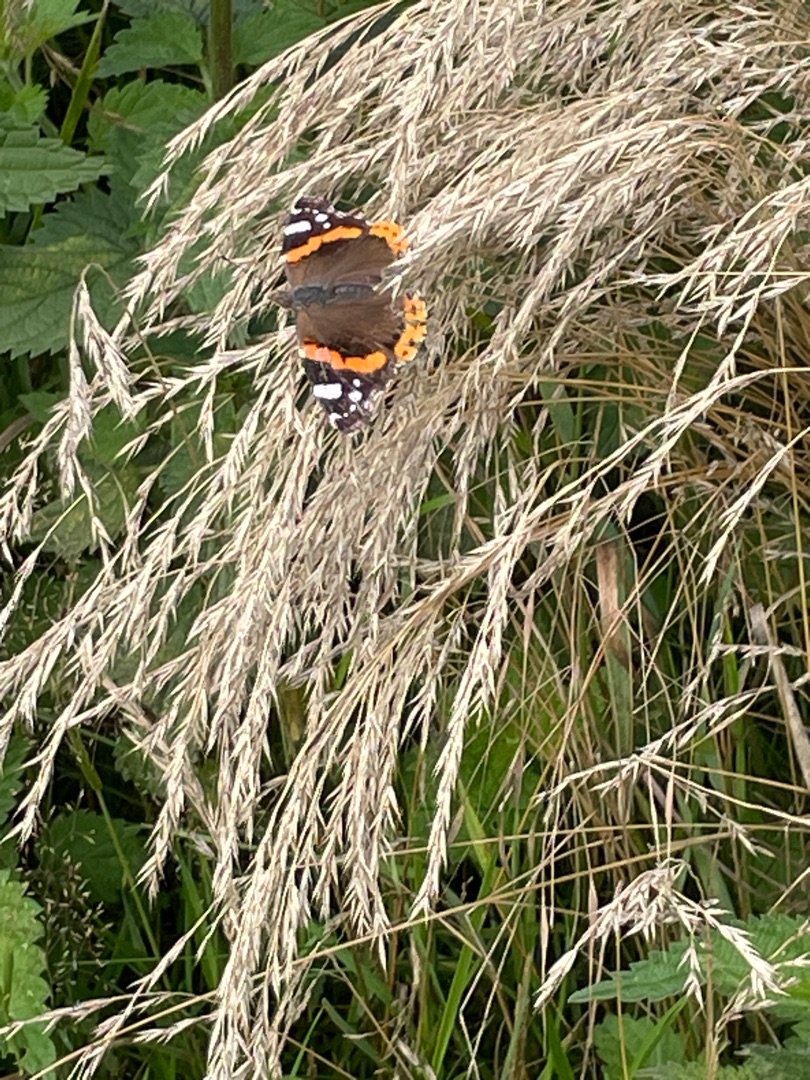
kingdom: Animalia
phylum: Arthropoda
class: Insecta
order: Lepidoptera
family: Nymphalidae
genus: Vanessa
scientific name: Vanessa atalanta
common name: Admiral
